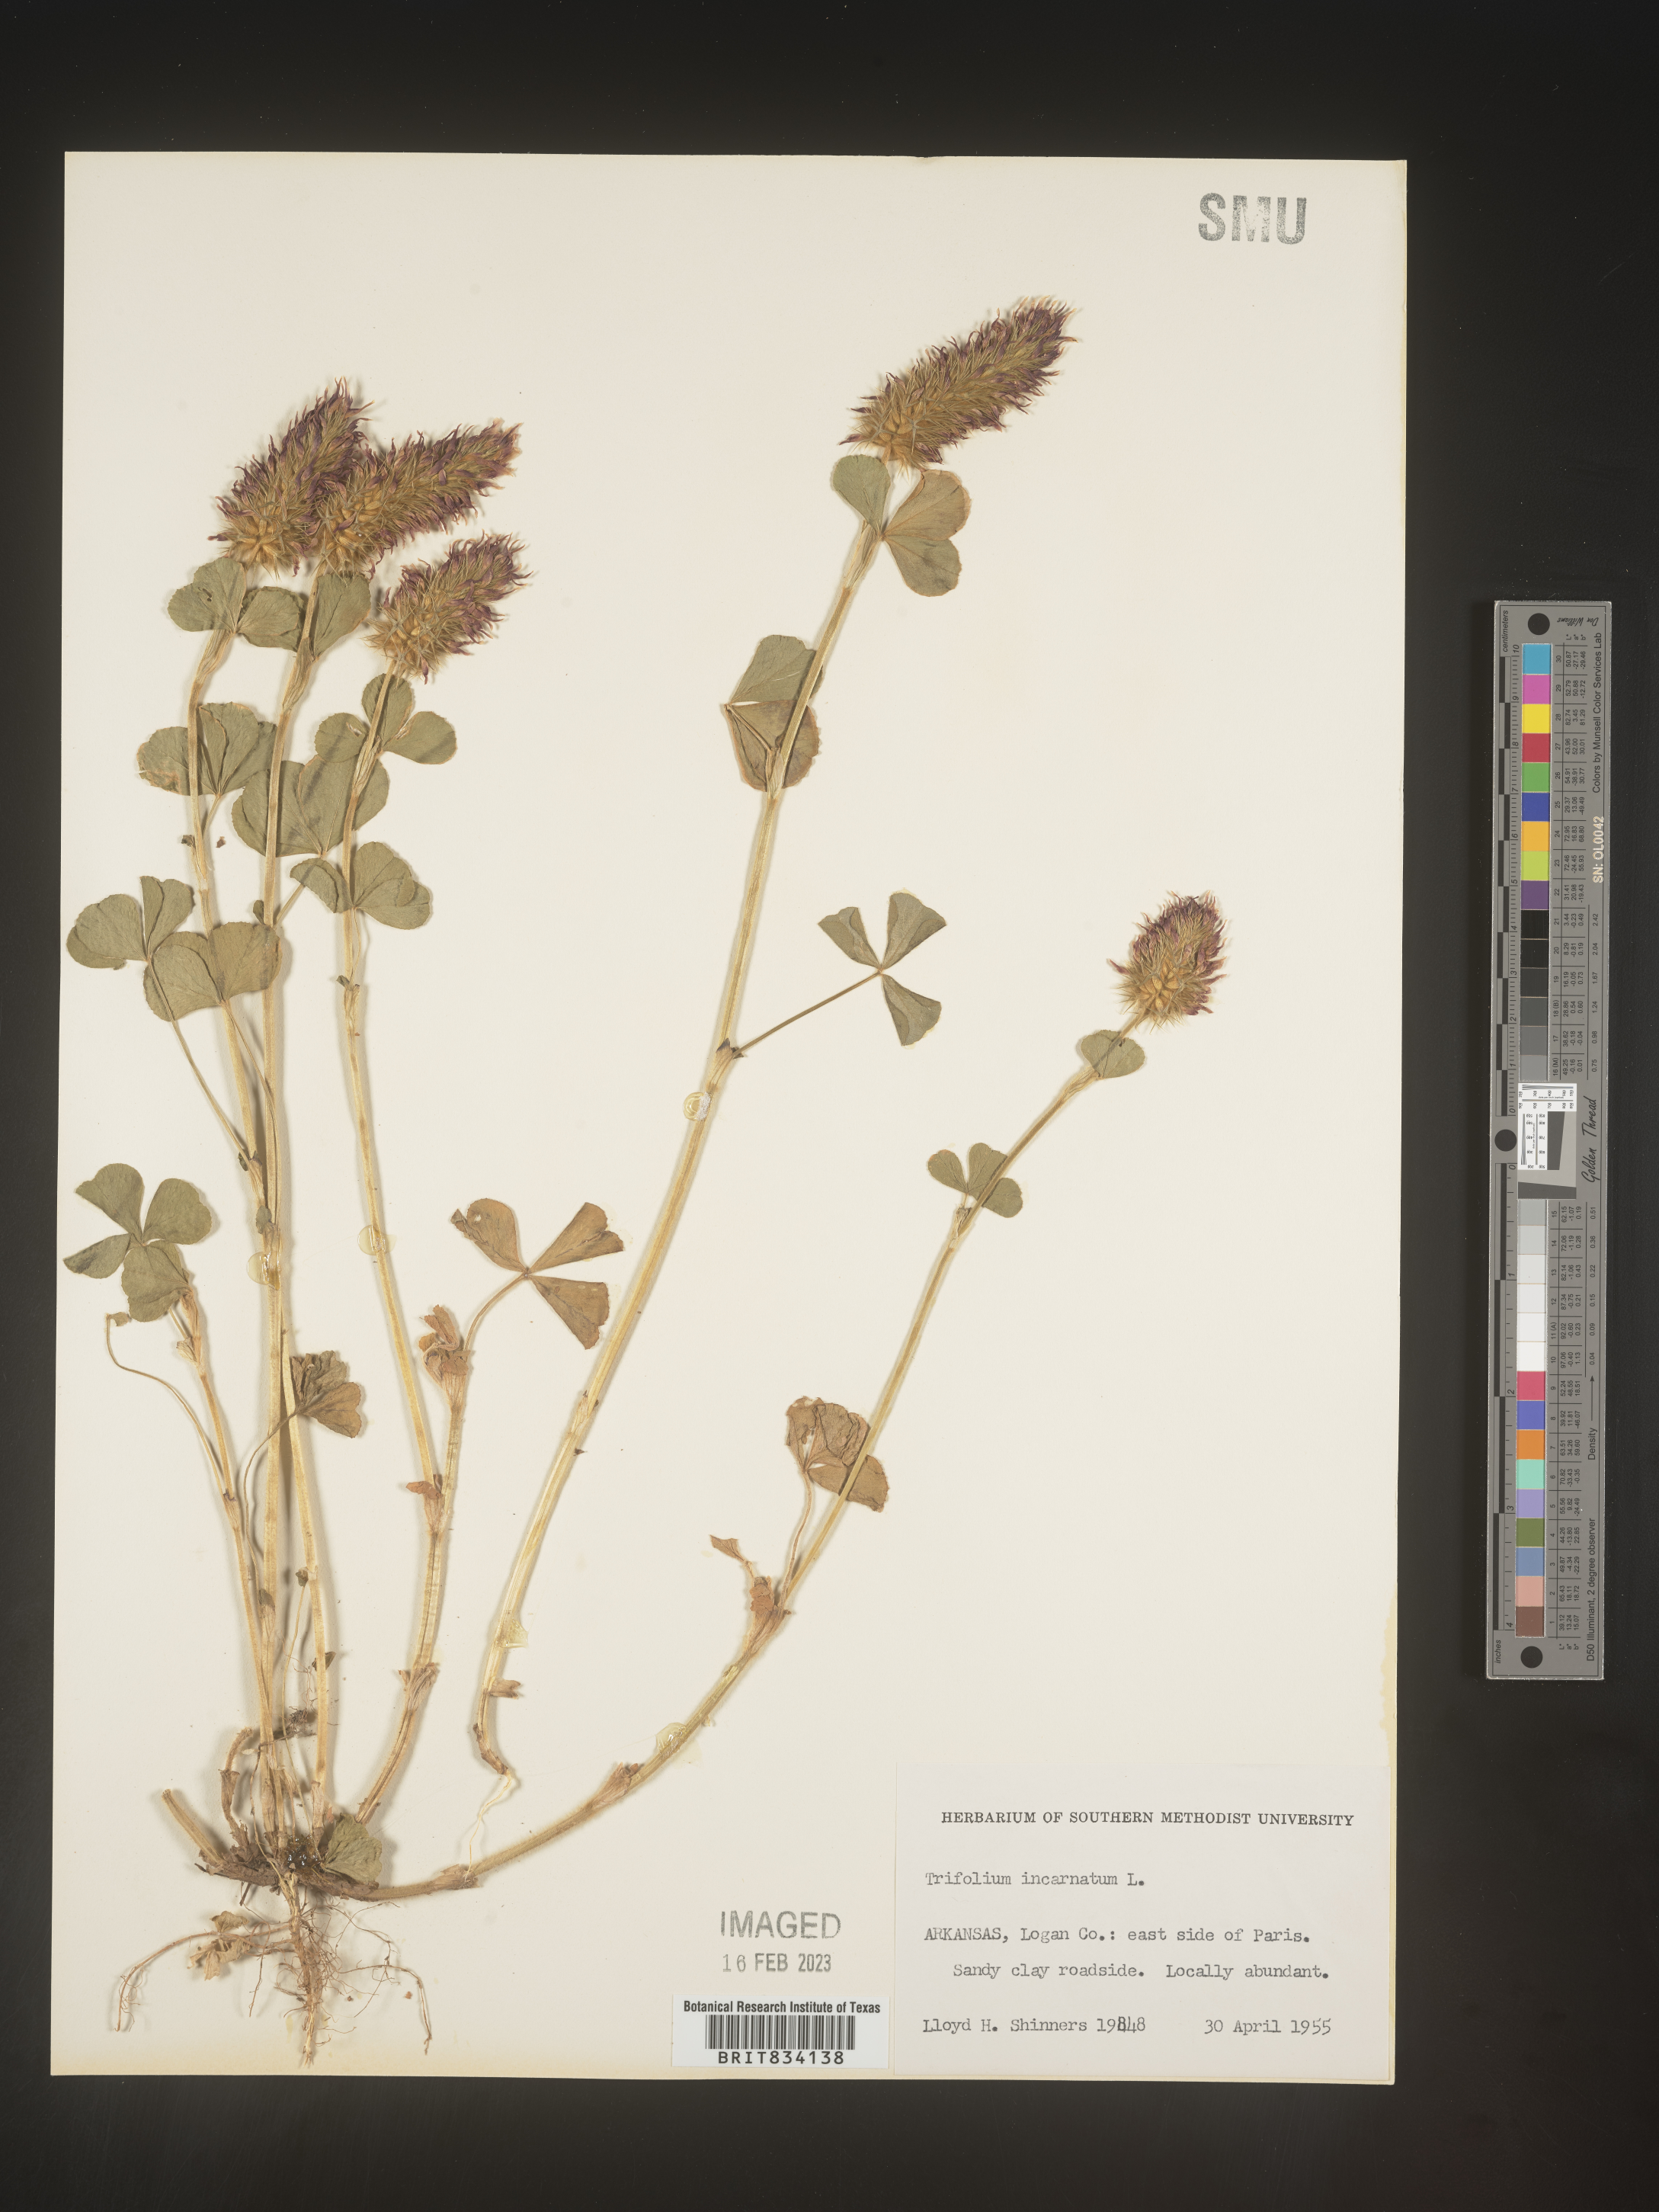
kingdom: Plantae
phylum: Tracheophyta
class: Magnoliopsida
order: Fabales
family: Fabaceae
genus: Trifolium
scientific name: Trifolium incarnatum
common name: Crimson clover
